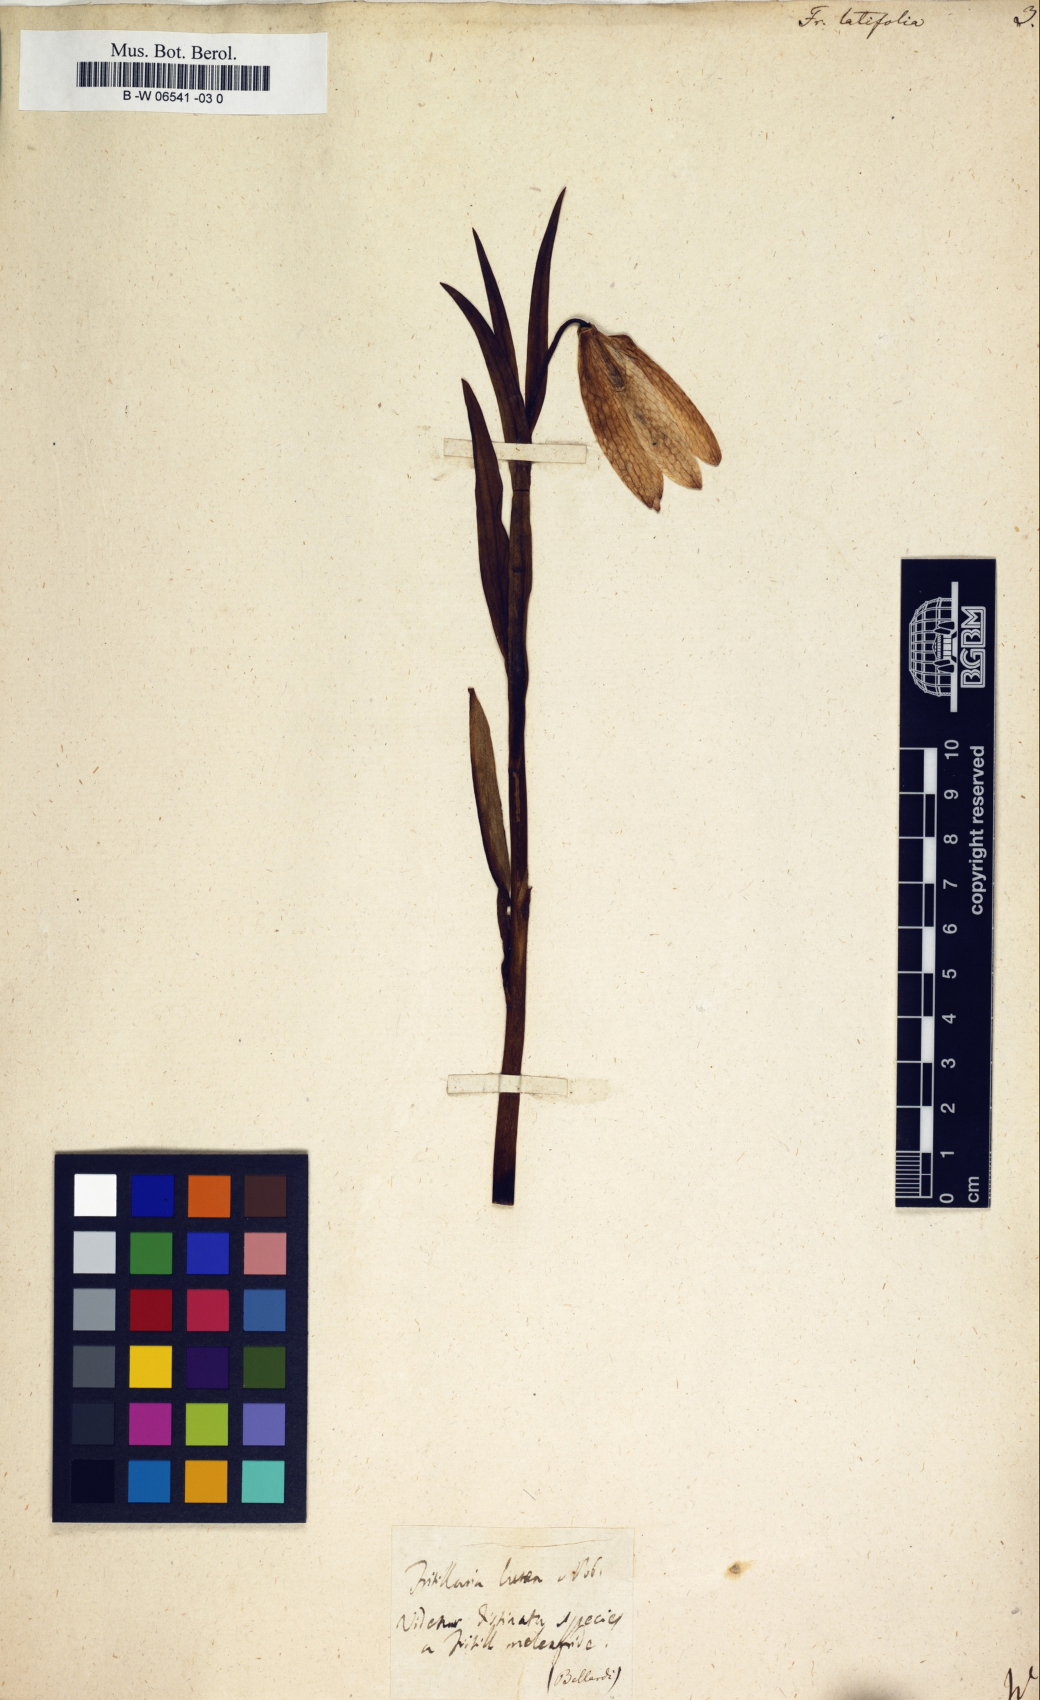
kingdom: Plantae
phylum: Tracheophyta
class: Liliopsida
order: Liliales
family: Liliaceae
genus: Fritillaria
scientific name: Fritillaria latifolia
